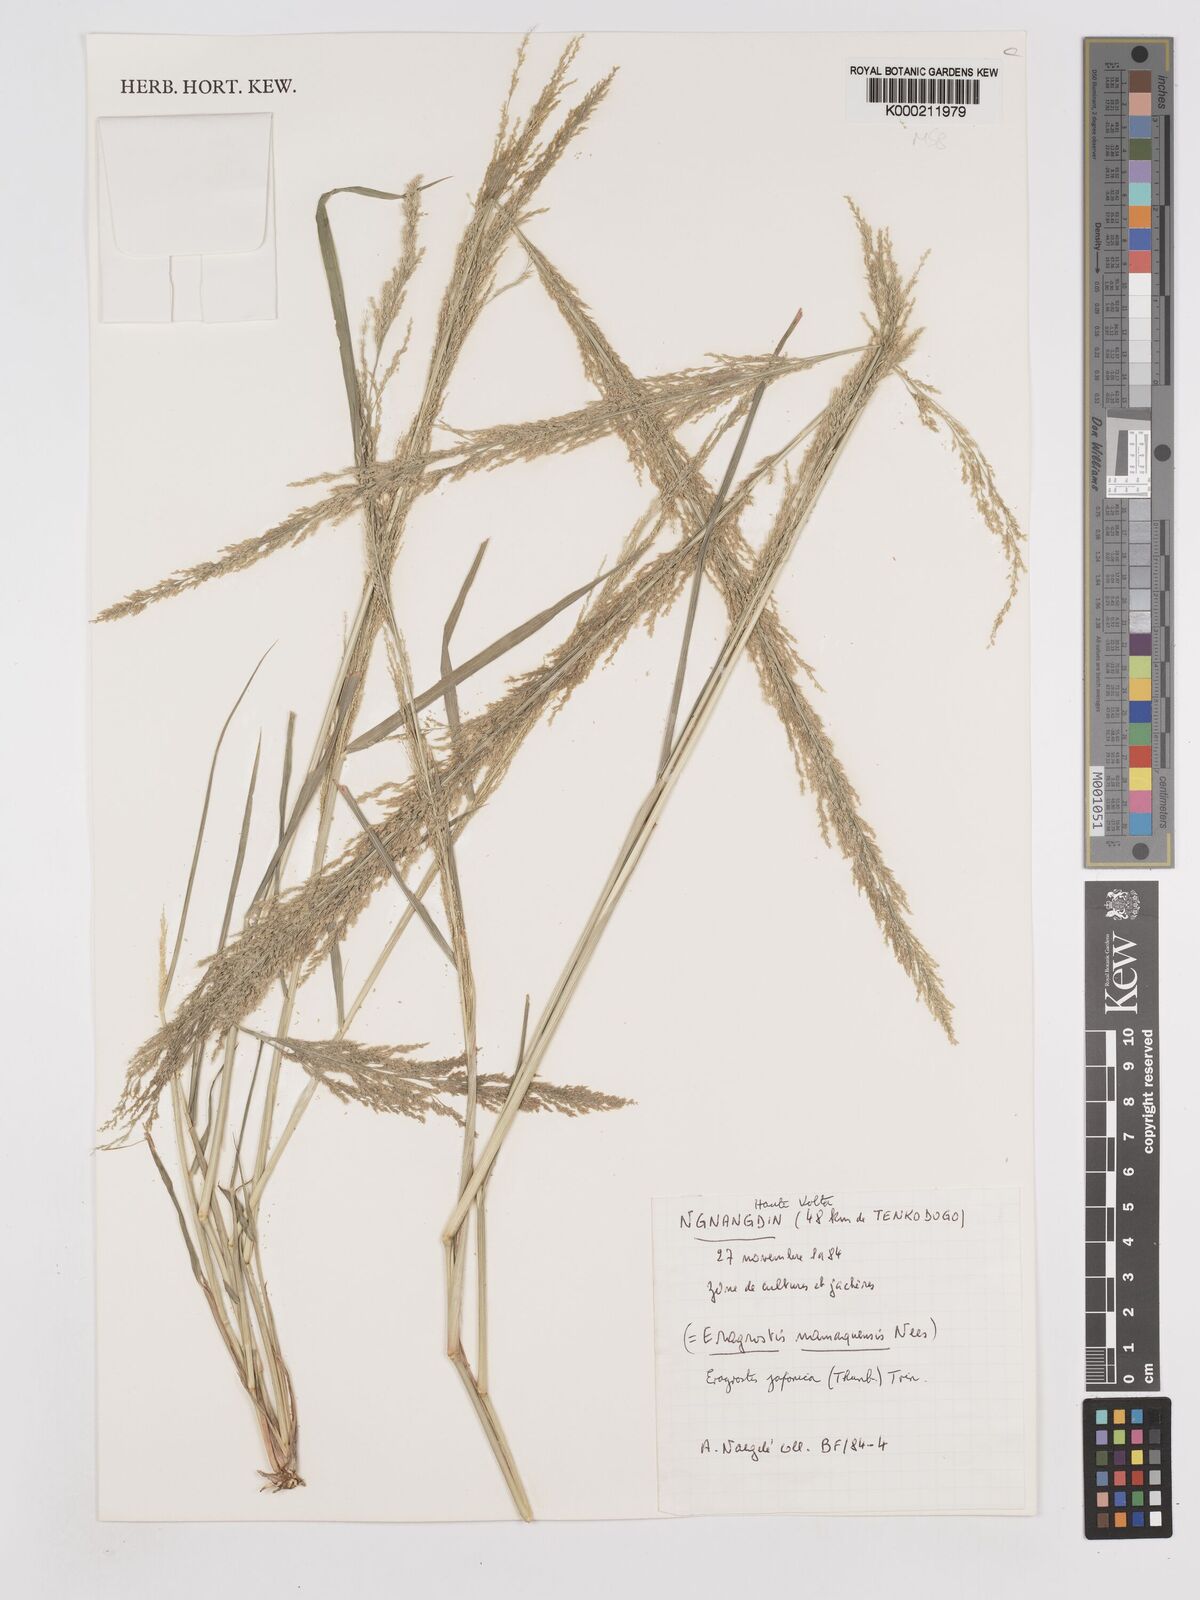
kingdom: Plantae
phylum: Tracheophyta
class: Liliopsida
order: Poales
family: Poaceae
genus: Eragrostis
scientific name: Eragrostis japonica
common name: Pond lovegrass
